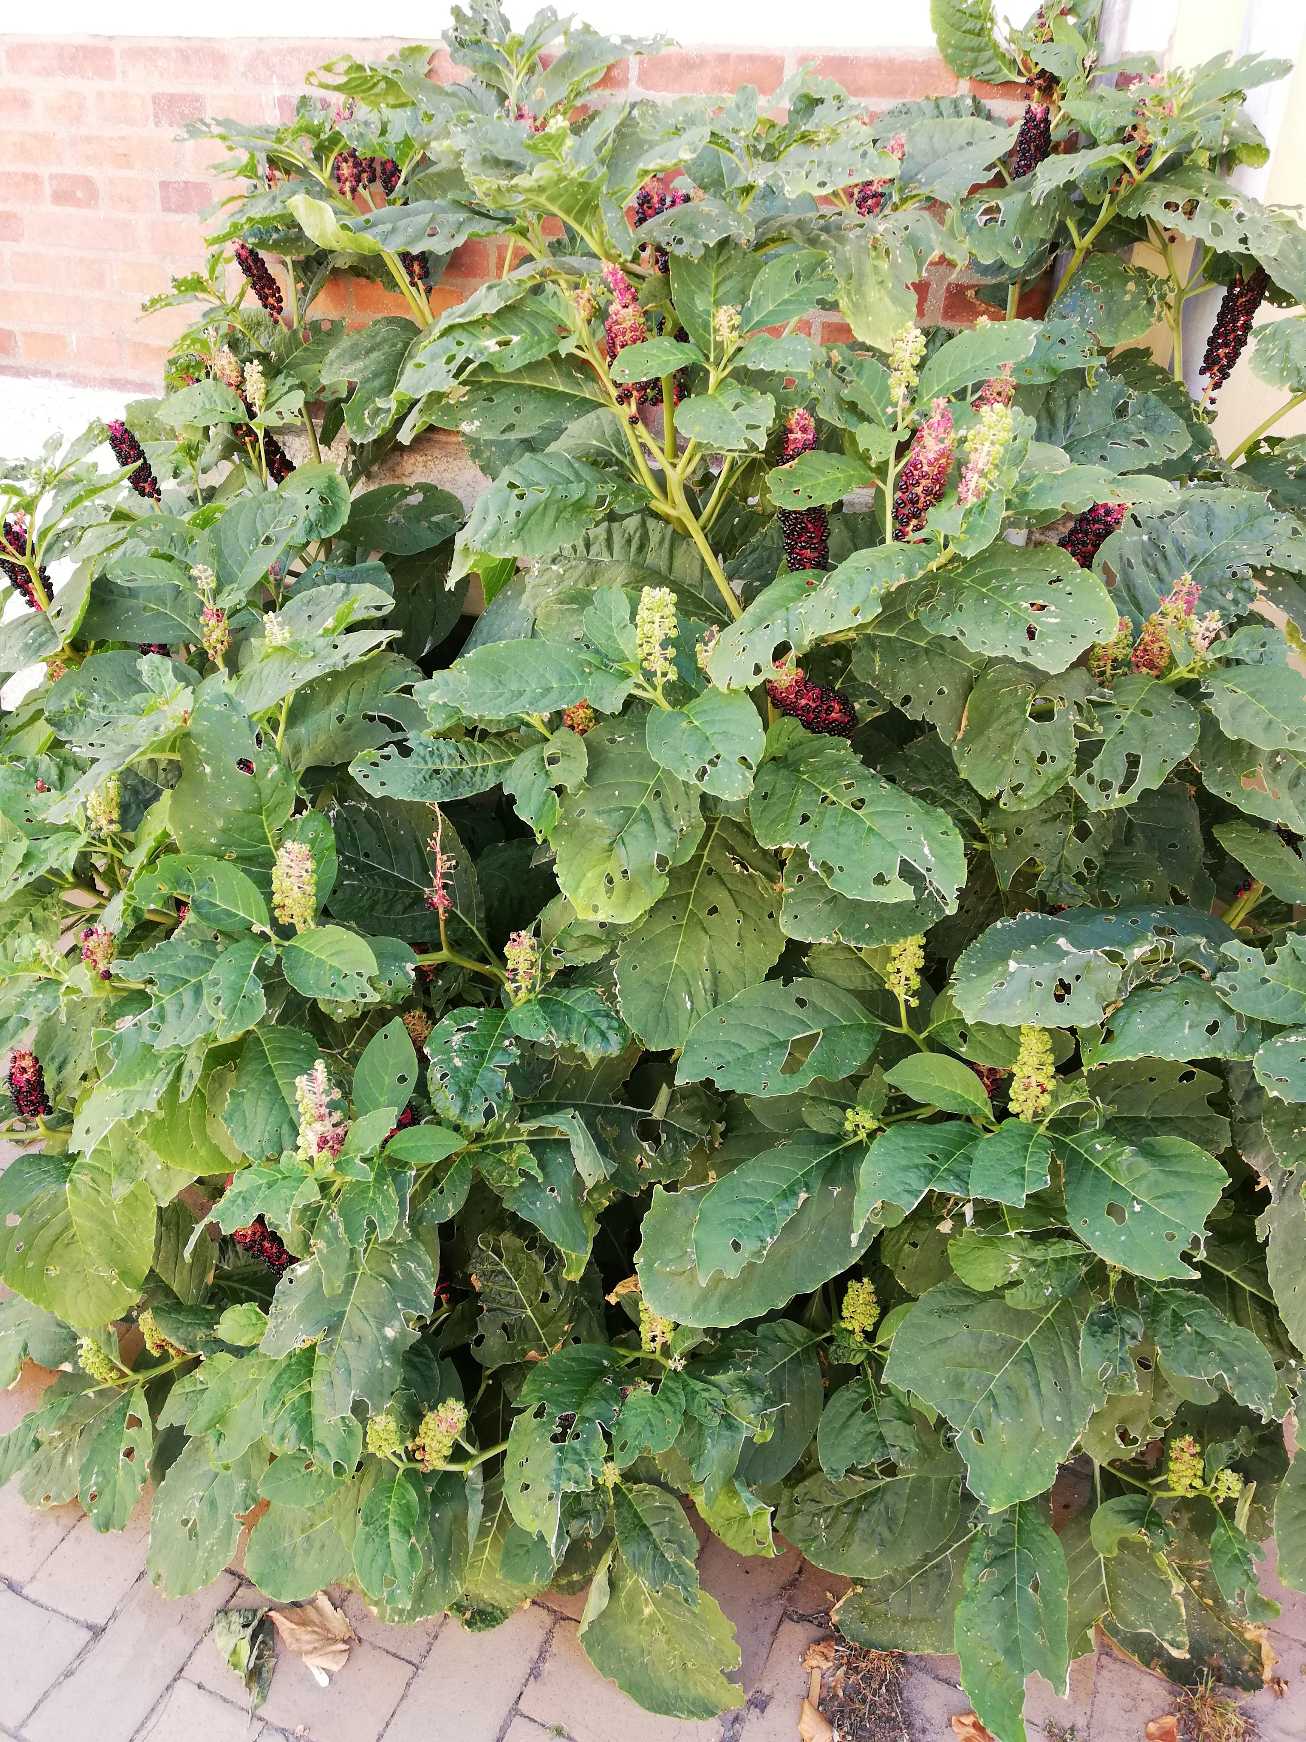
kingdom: Plantae
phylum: Tracheophyta
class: Magnoliopsida
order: Caryophyllales
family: Phytolaccaceae
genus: Phytolacca
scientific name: Phytolacca acinosa
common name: Asiatisk kermesbær
